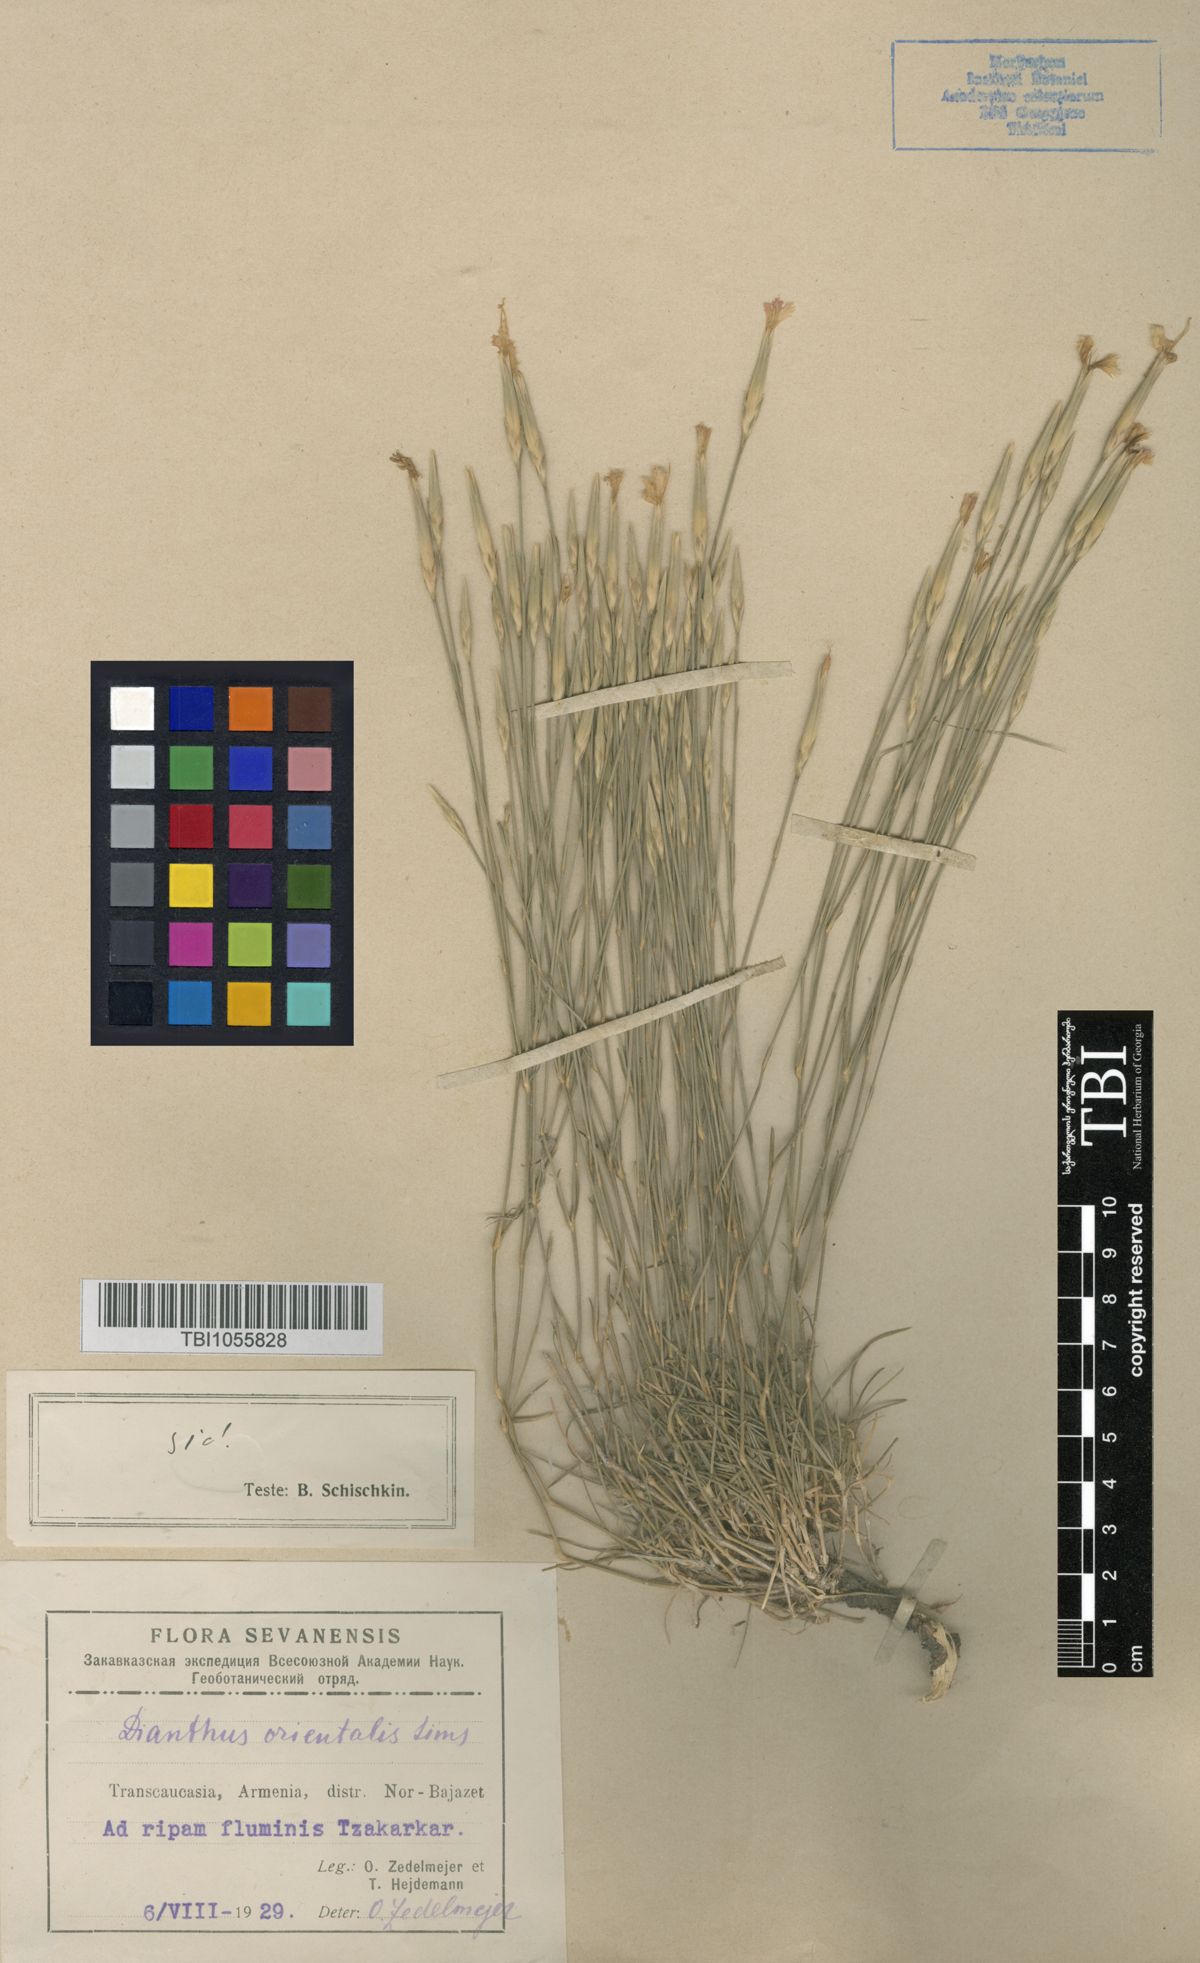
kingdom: Plantae
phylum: Tracheophyta
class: Magnoliopsida
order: Caryophyllales
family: Caryophyllaceae
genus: Dianthus
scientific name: Dianthus orientalis
